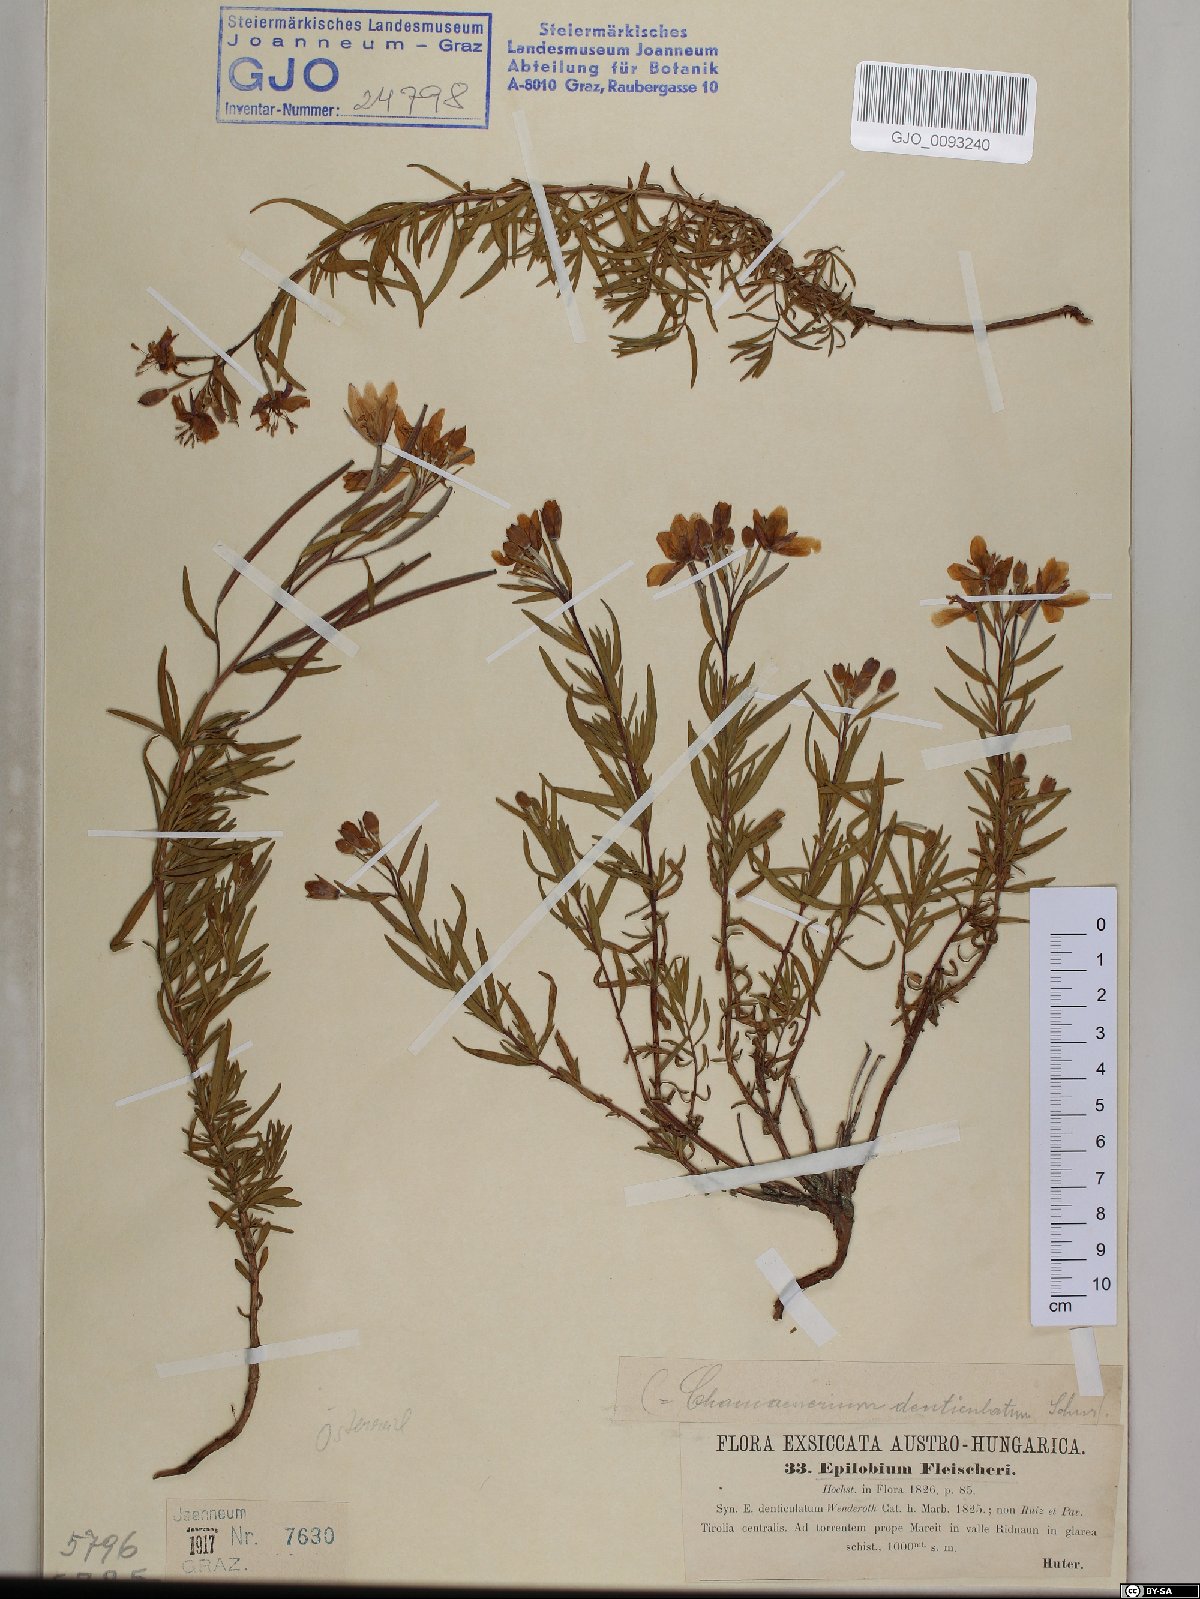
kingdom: Plantae
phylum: Tracheophyta
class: Magnoliopsida
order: Myrtales
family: Onagraceae
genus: Chamaenerion
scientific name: Chamaenerion fleischeri
